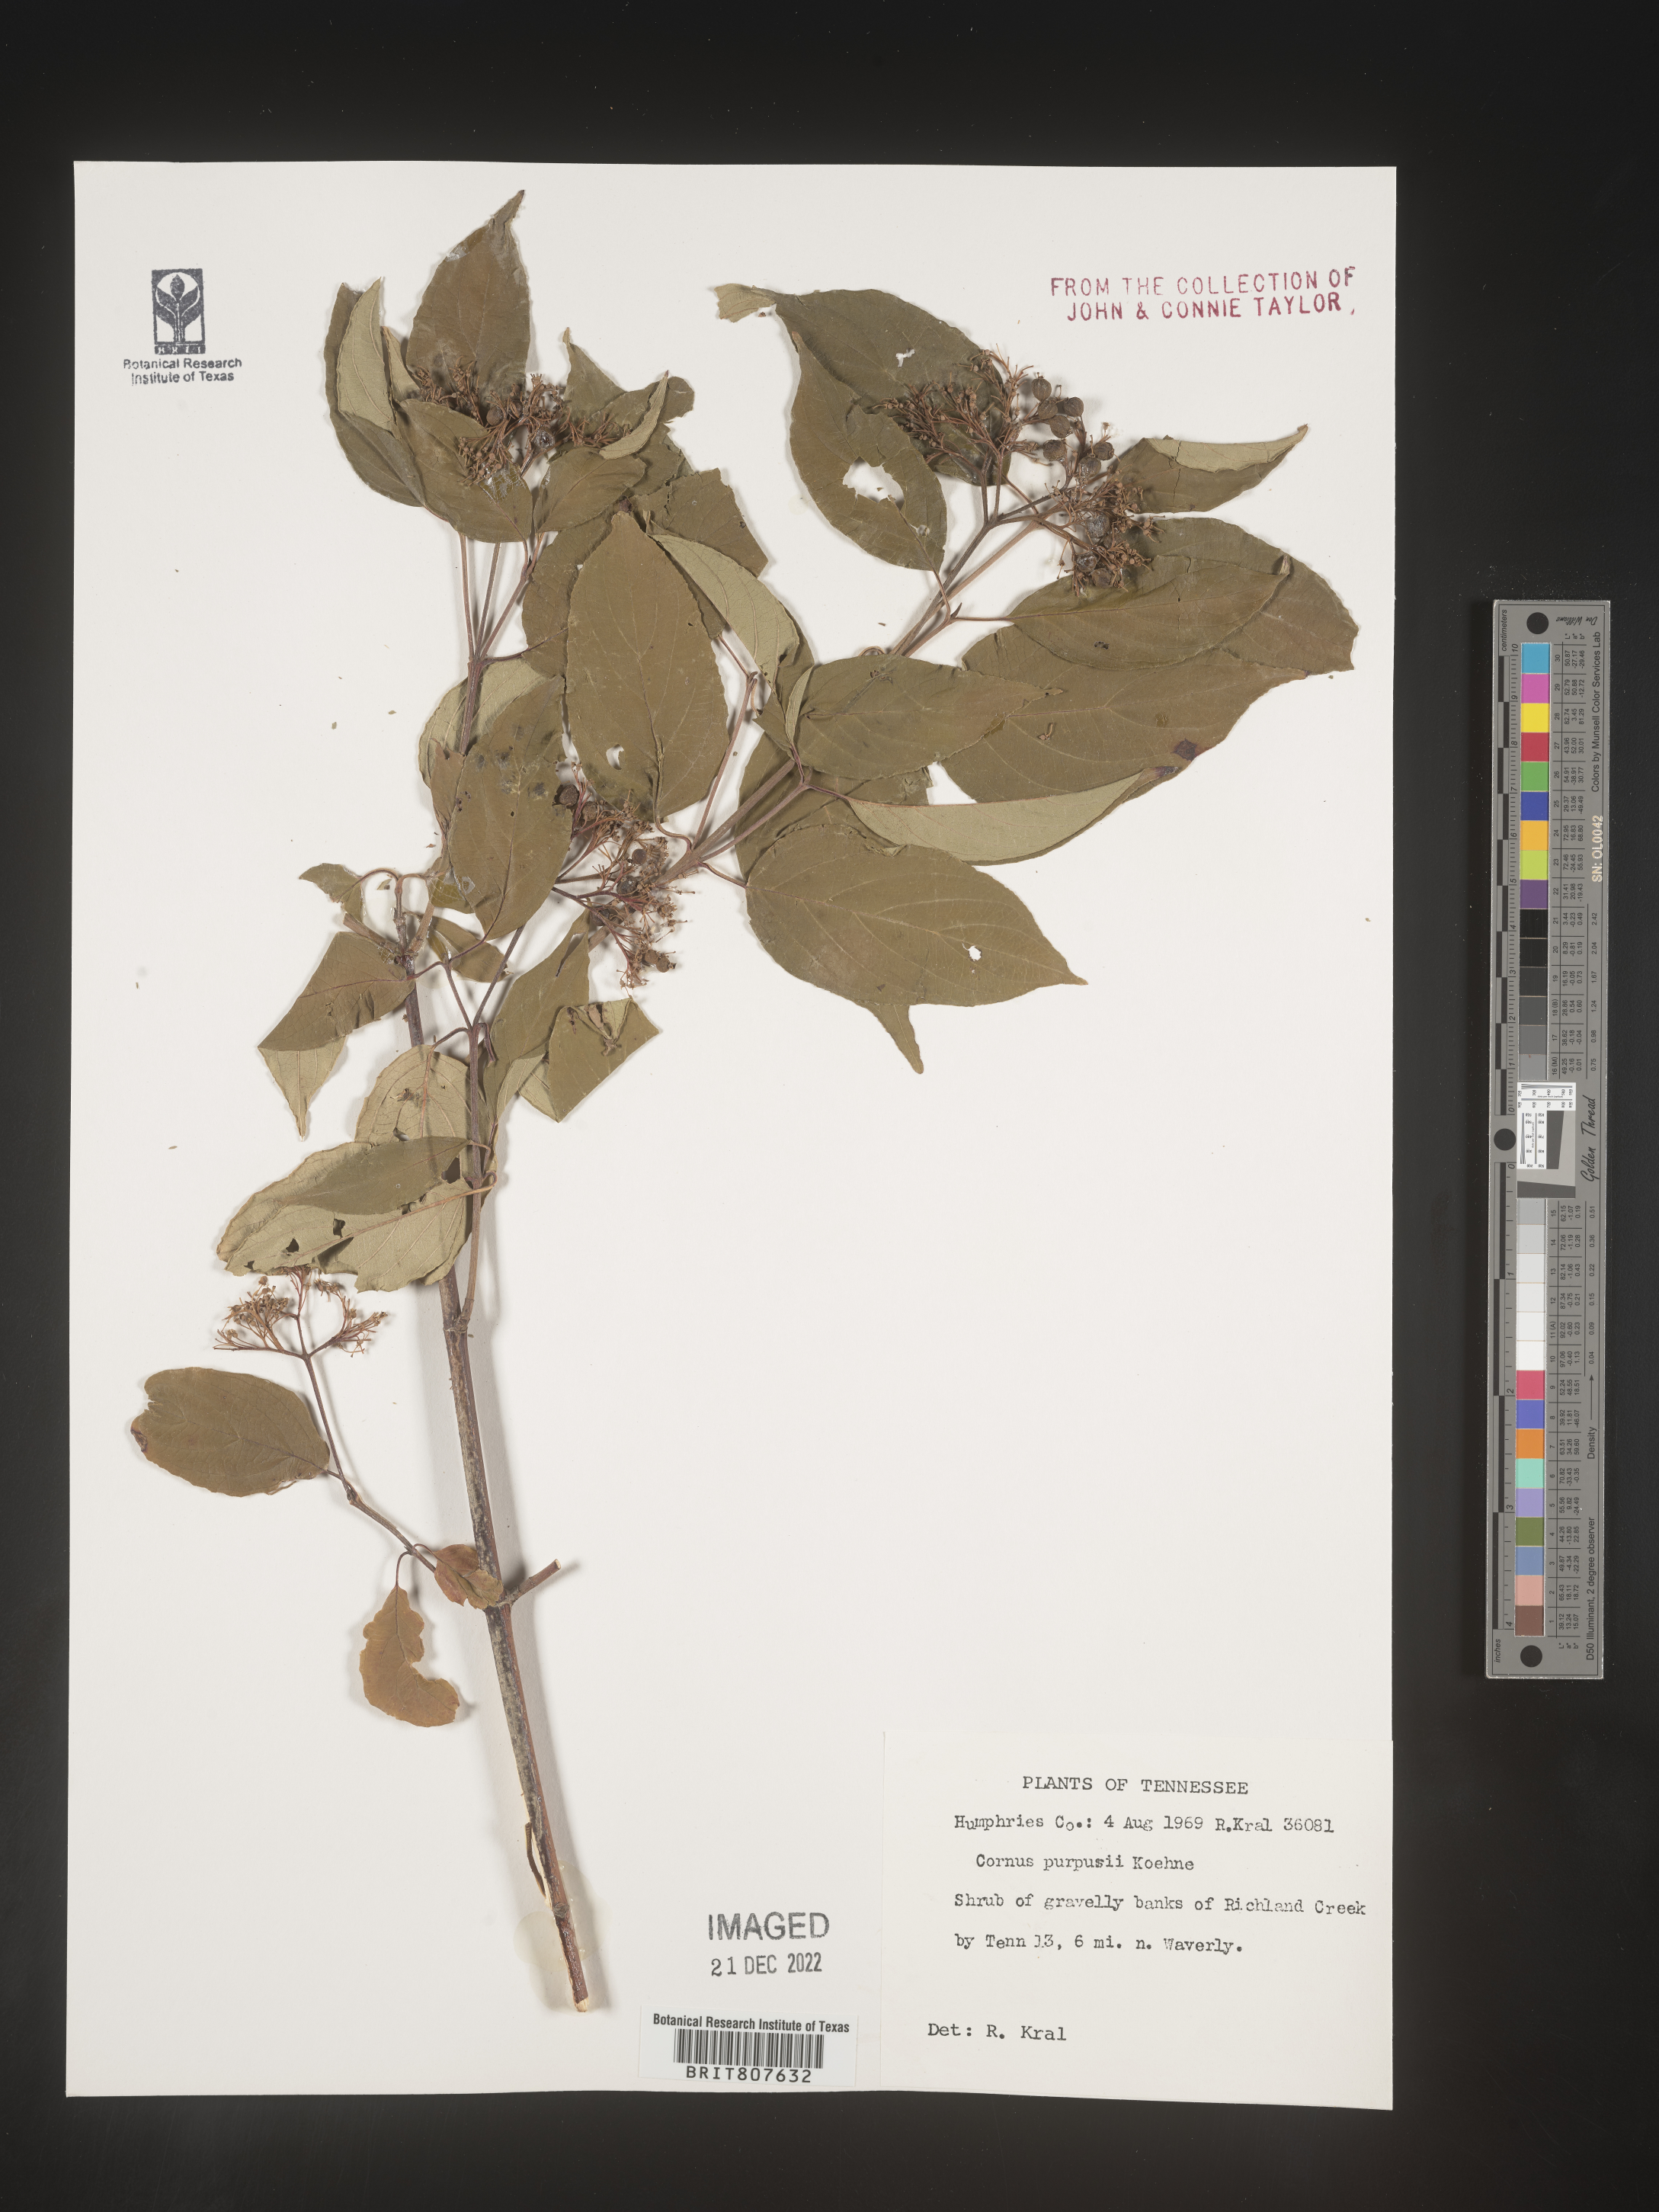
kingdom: Plantae
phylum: Tracheophyta
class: Magnoliopsida
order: Cornales
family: Cornaceae
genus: Cornus
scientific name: Cornus
